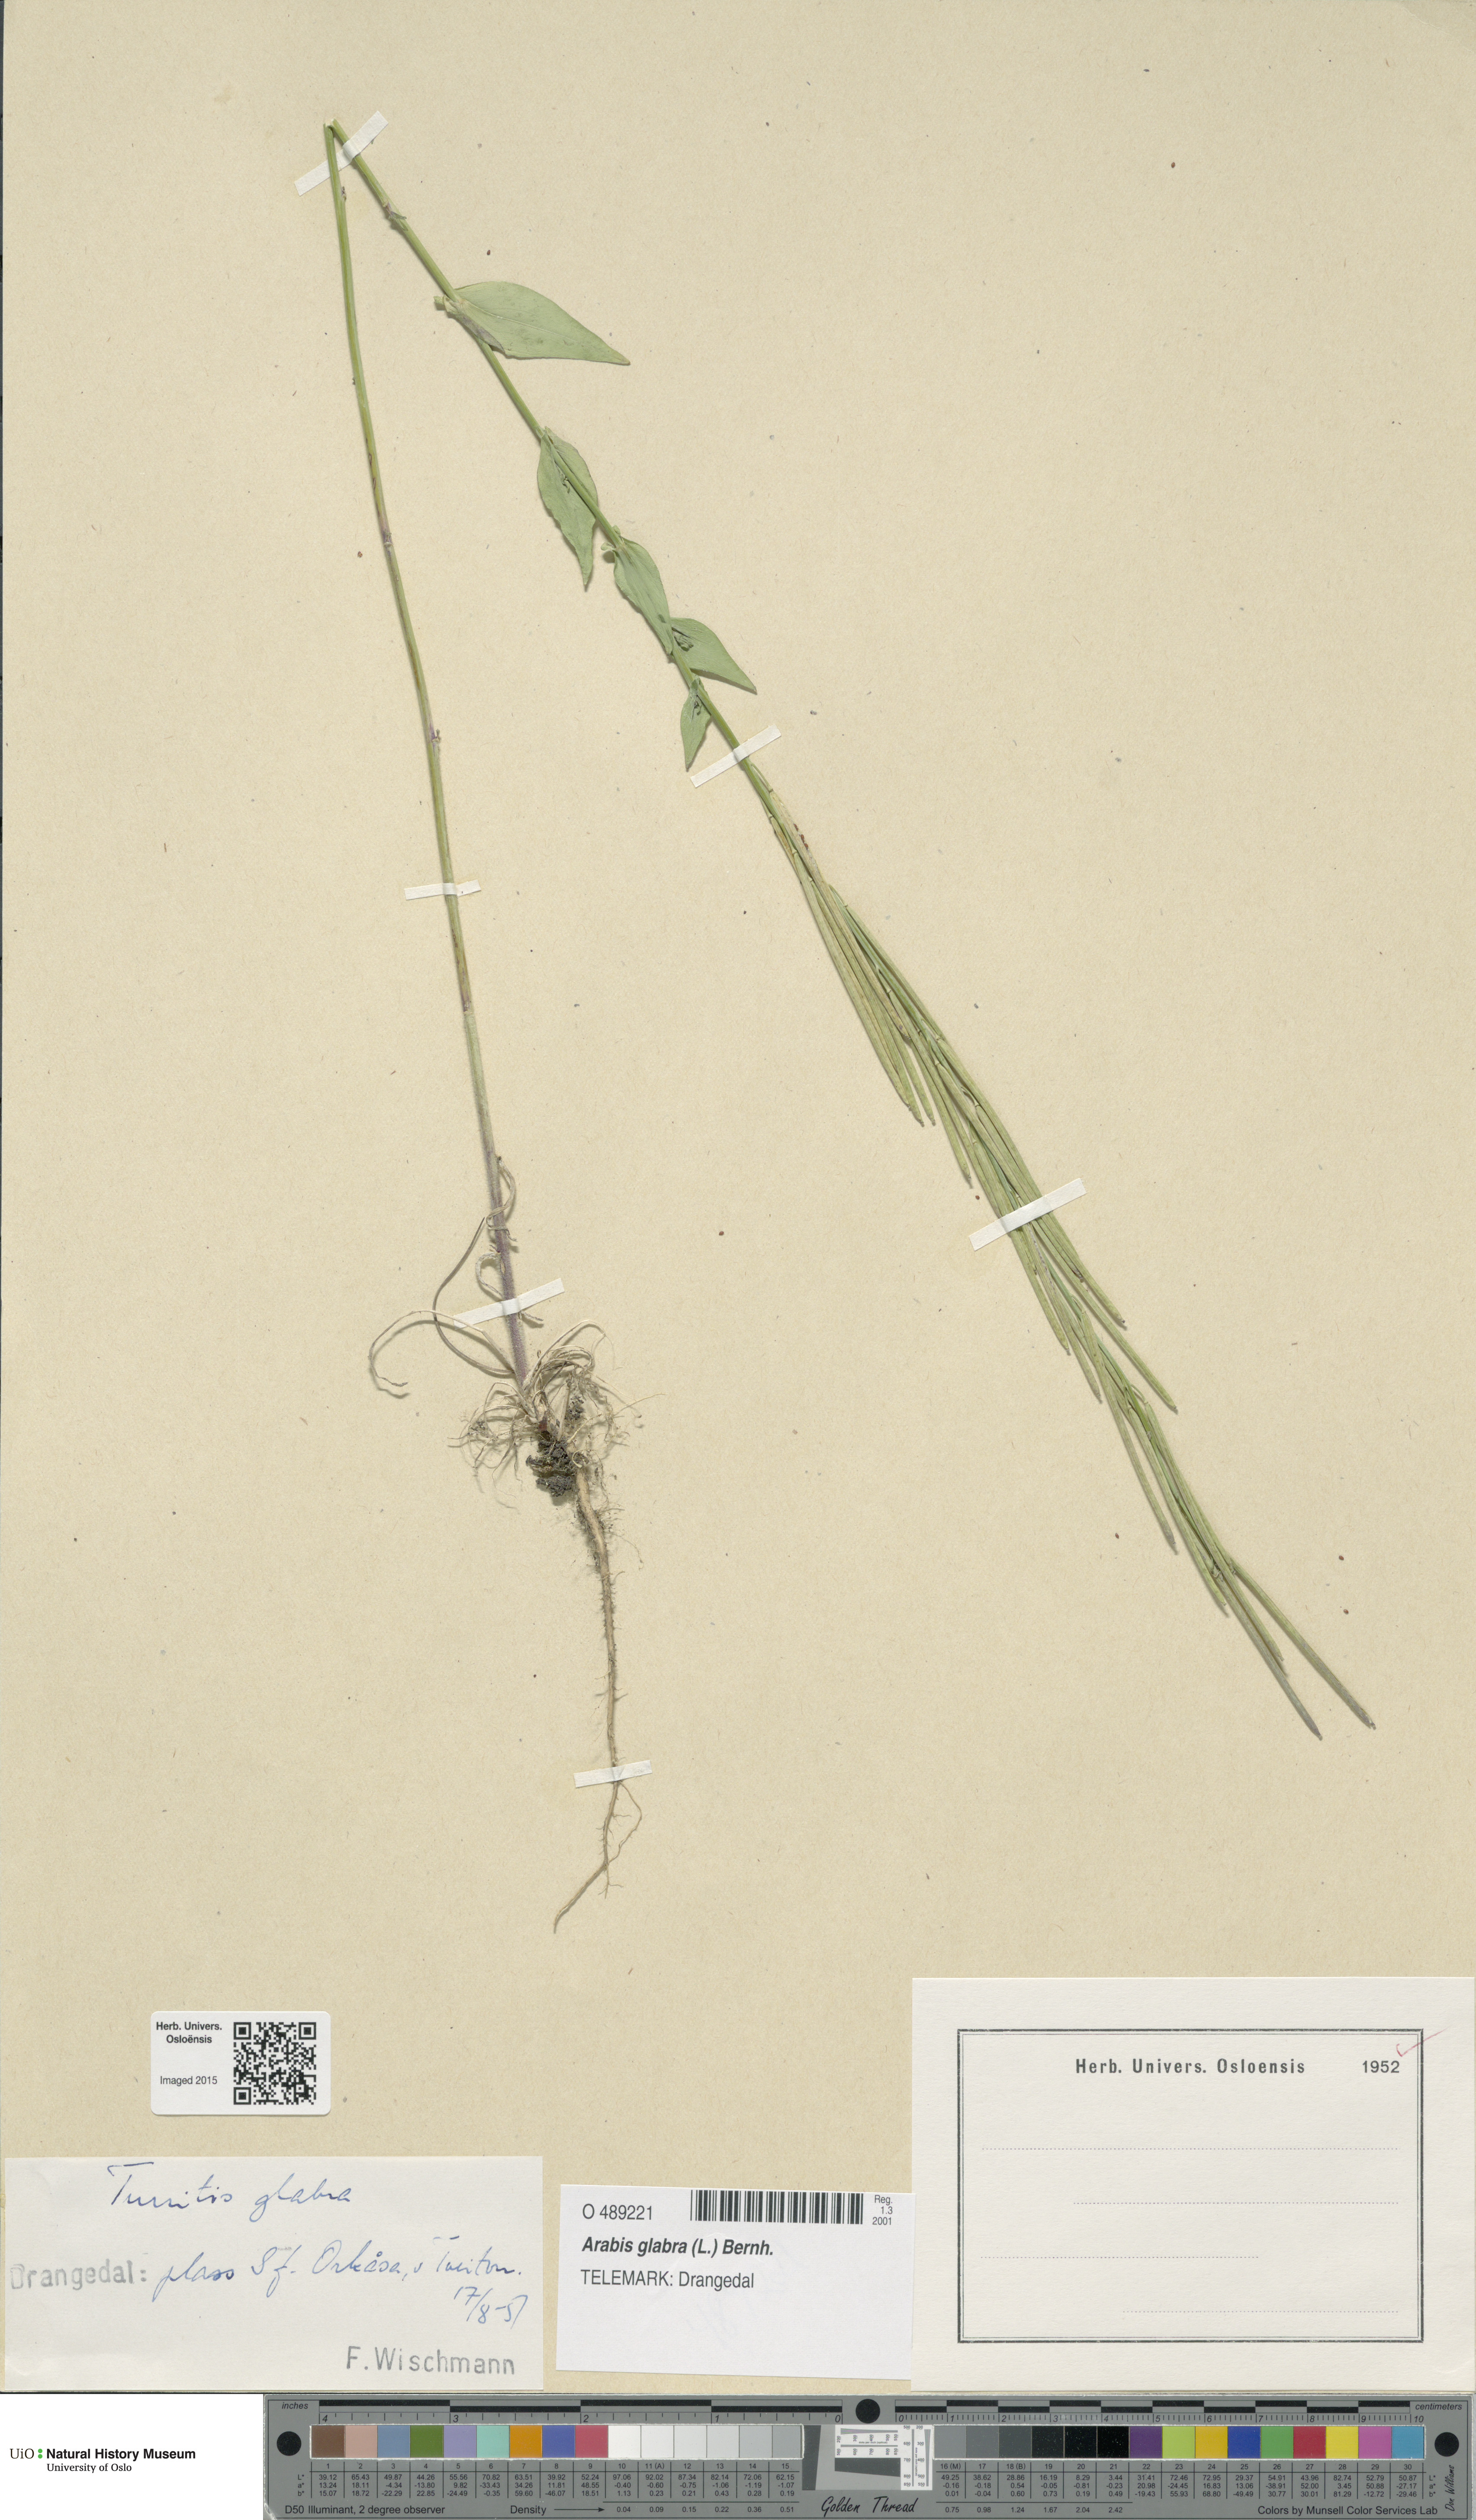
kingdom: Plantae
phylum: Tracheophyta
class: Magnoliopsida
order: Brassicales
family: Brassicaceae
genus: Turritis
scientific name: Turritis glabra
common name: Tower rockcress
